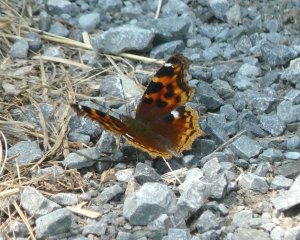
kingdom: Animalia
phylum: Arthropoda
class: Insecta
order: Lepidoptera
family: Nymphalidae
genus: Polygonia
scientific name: Polygonia vaualbum
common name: Compton Tortoiseshell
